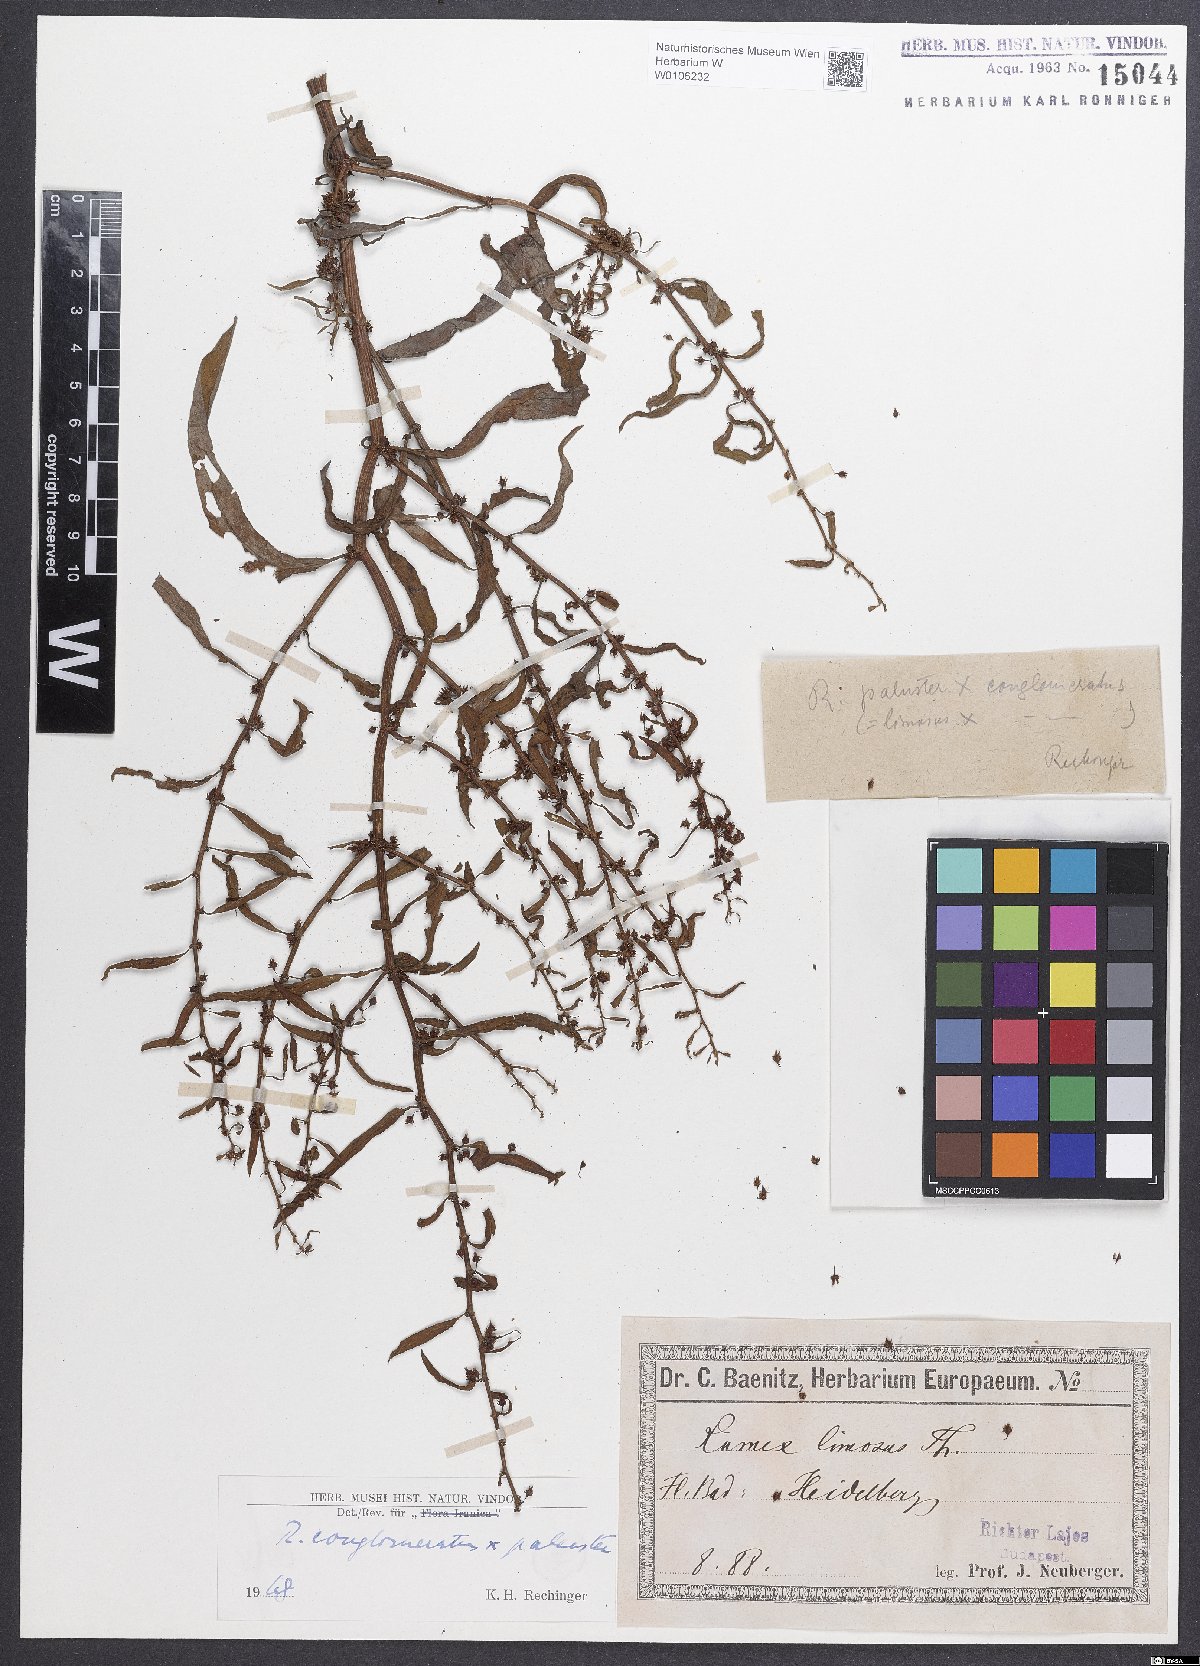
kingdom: Plantae
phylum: Tracheophyta
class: Magnoliopsida
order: Caryophyllales
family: Polygonaceae
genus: Rumex
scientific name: Rumex
